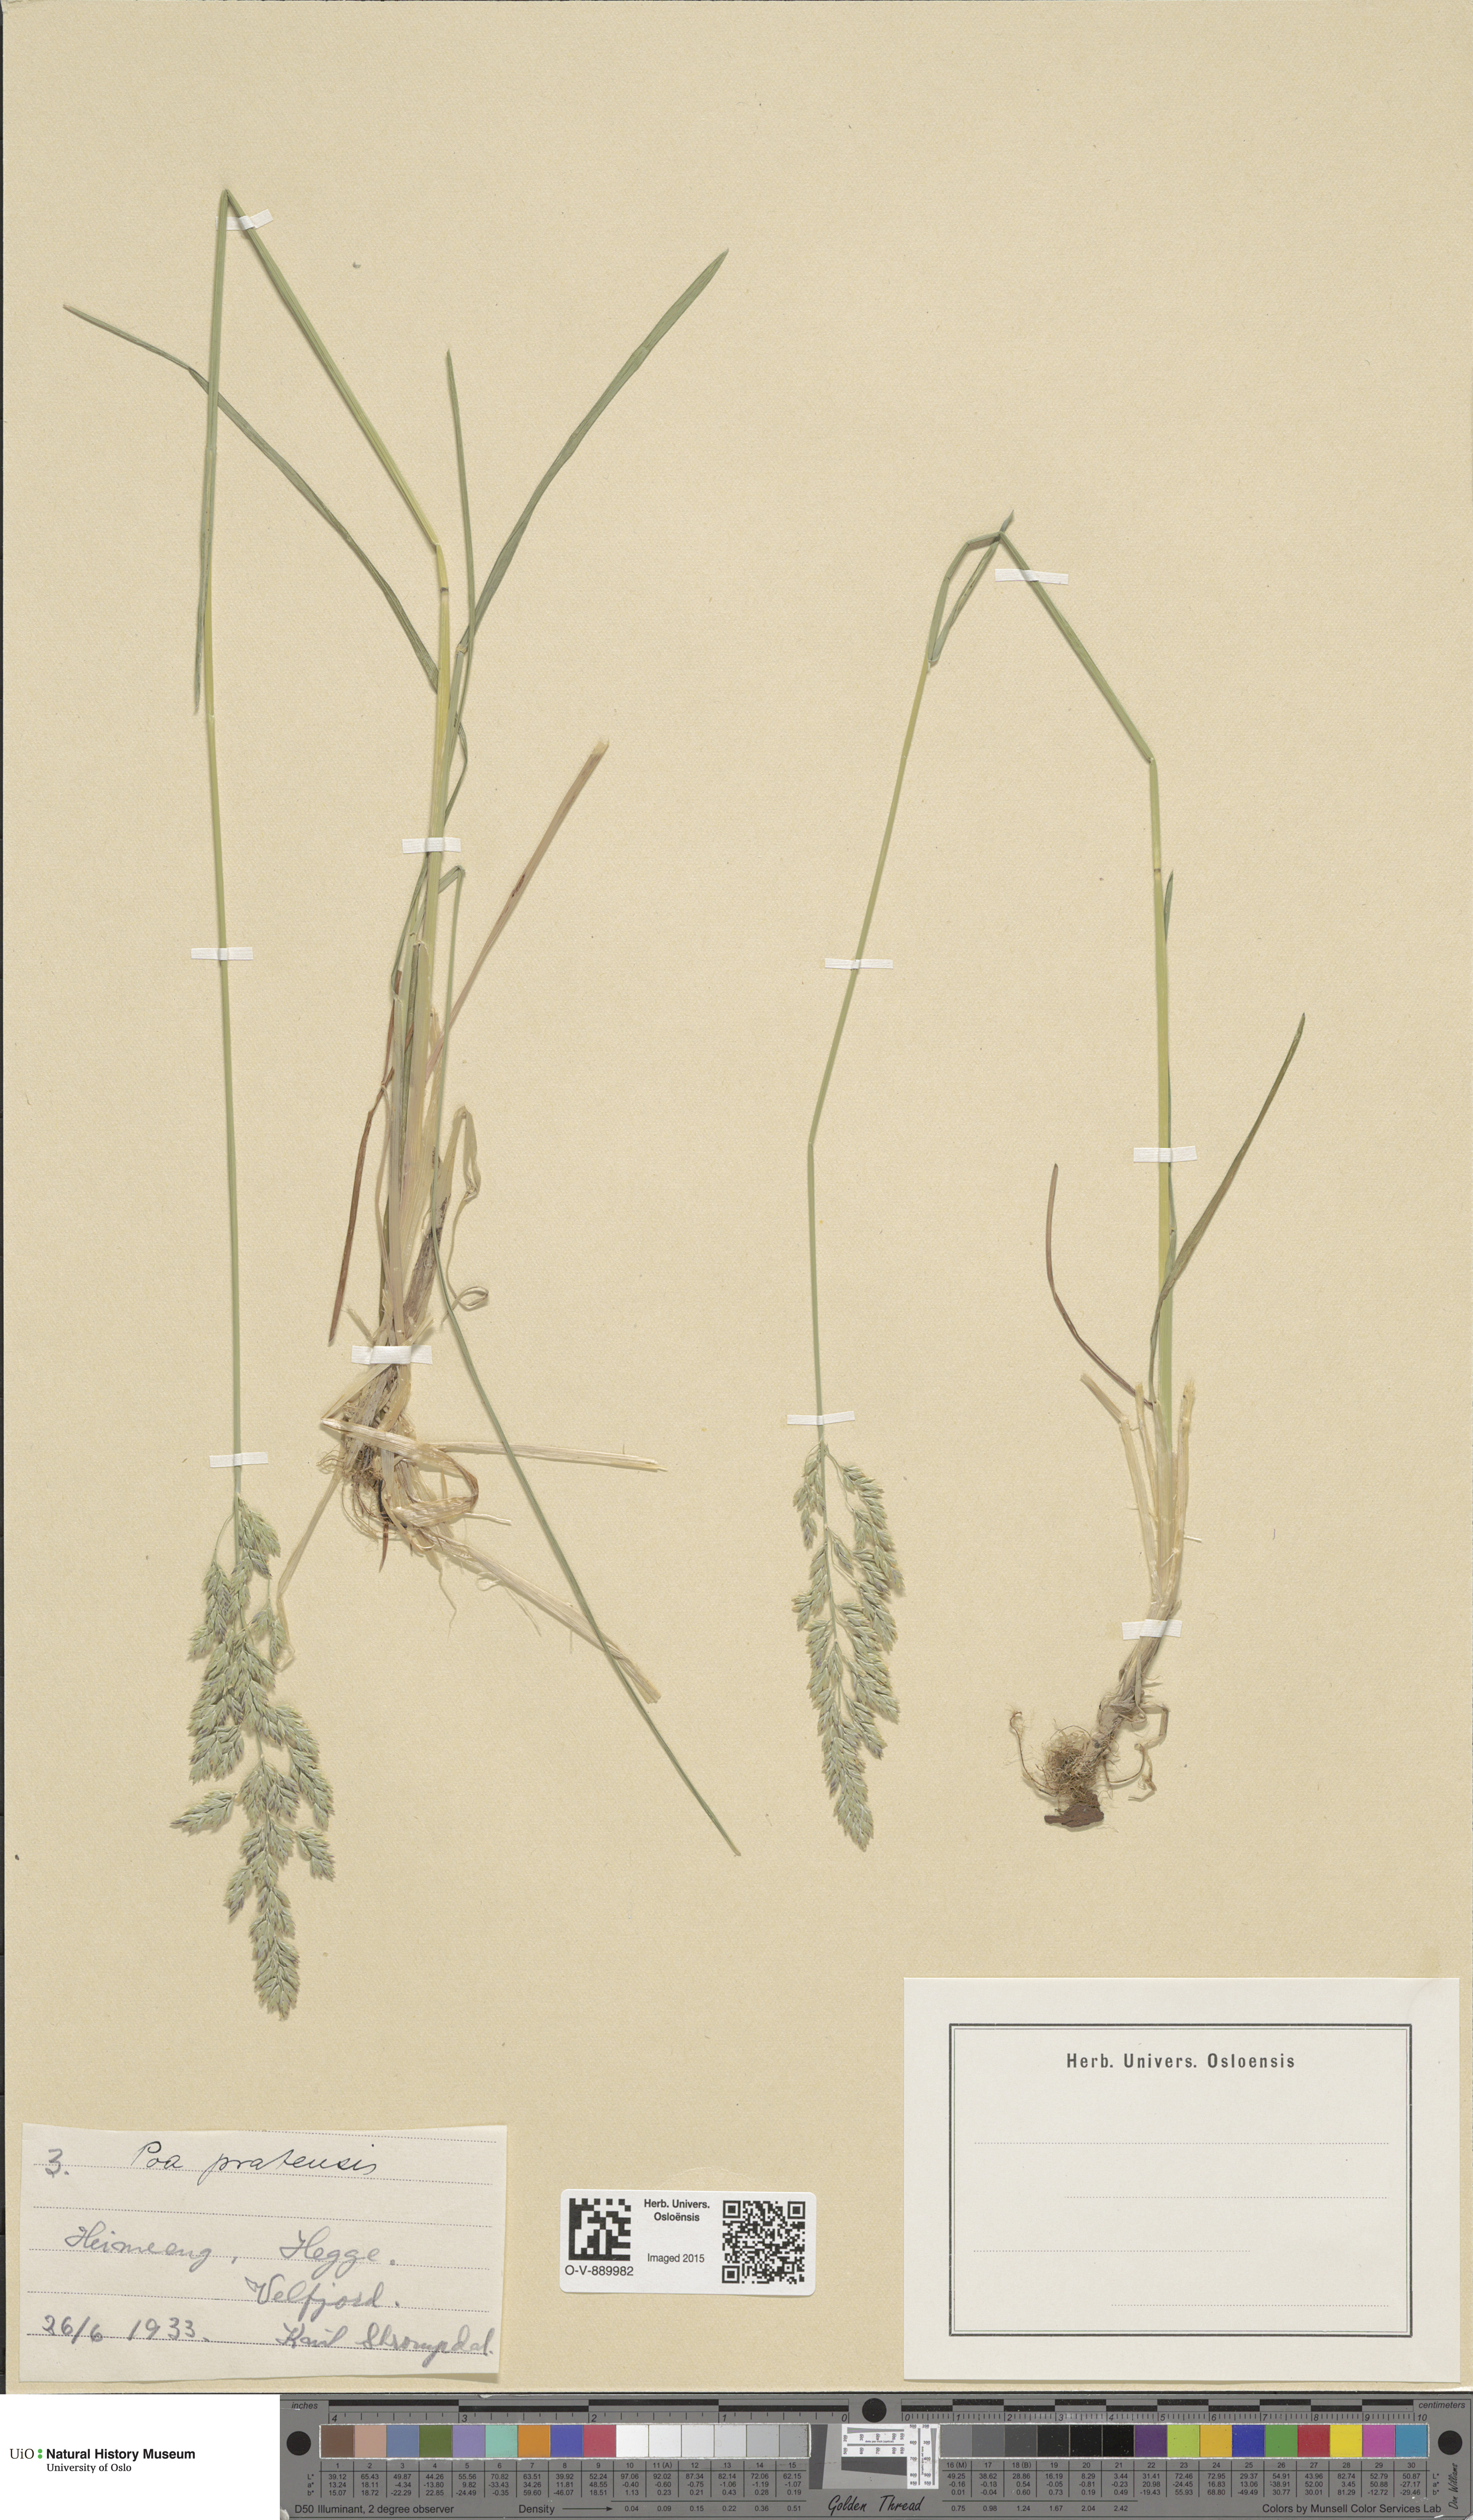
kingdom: Plantae
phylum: Tracheophyta
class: Liliopsida
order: Poales
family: Poaceae
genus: Poa
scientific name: Poa pratensis
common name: Kentucky bluegrass
